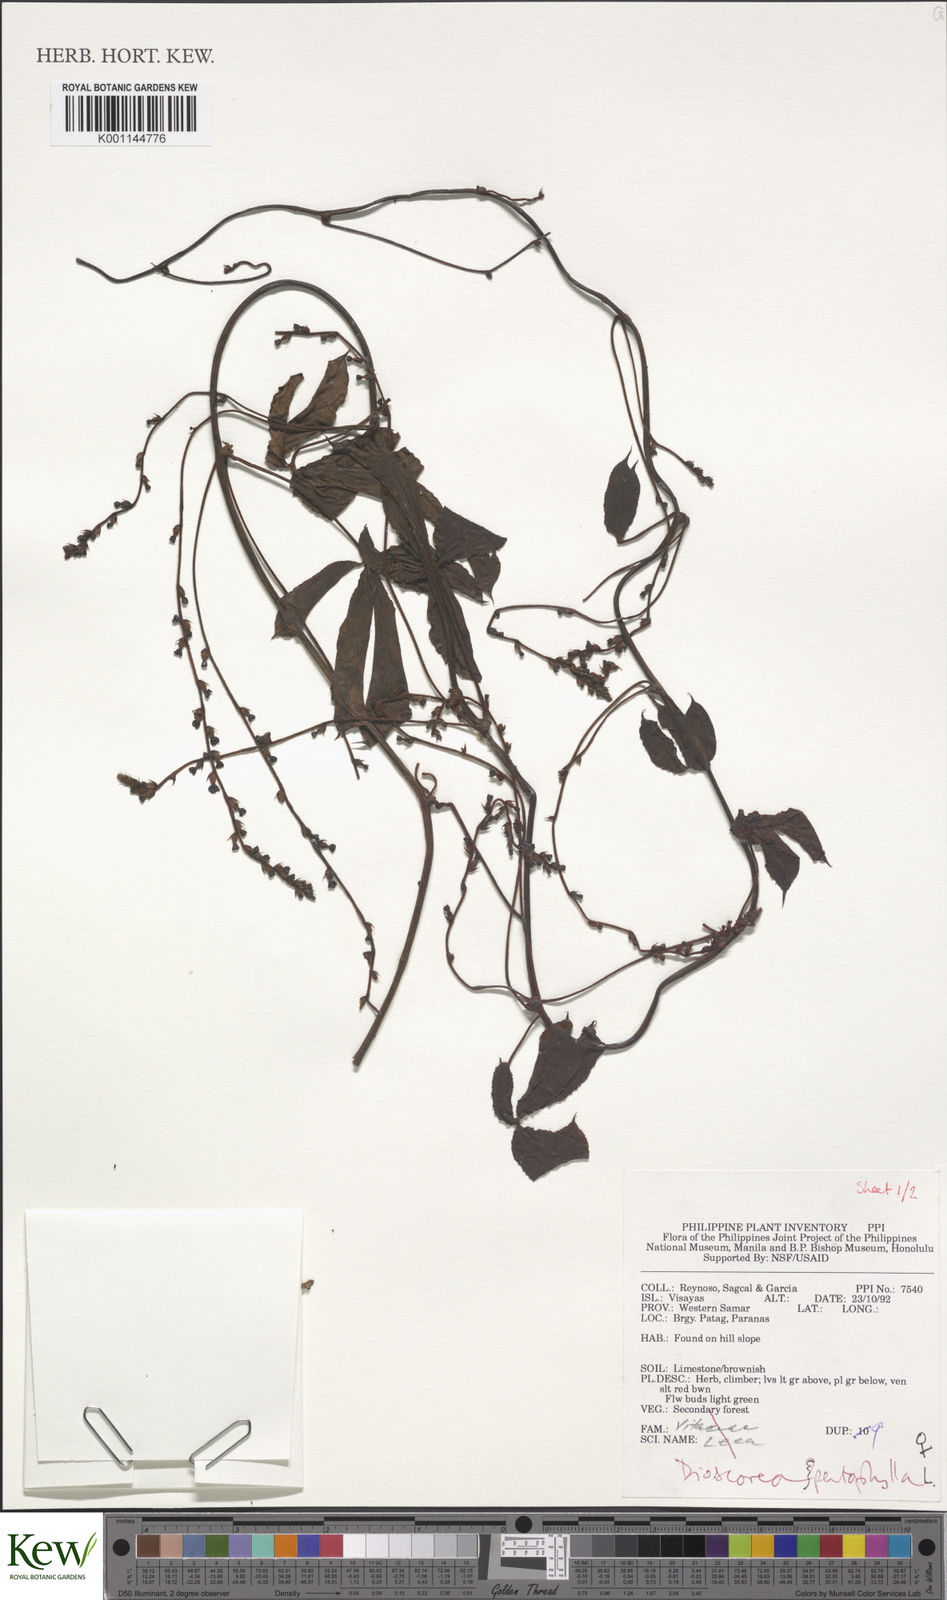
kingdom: Plantae
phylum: Tracheophyta
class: Liliopsida
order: Dioscoreales
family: Dioscoreaceae
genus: Dioscorea
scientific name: Dioscorea pentaphylla
